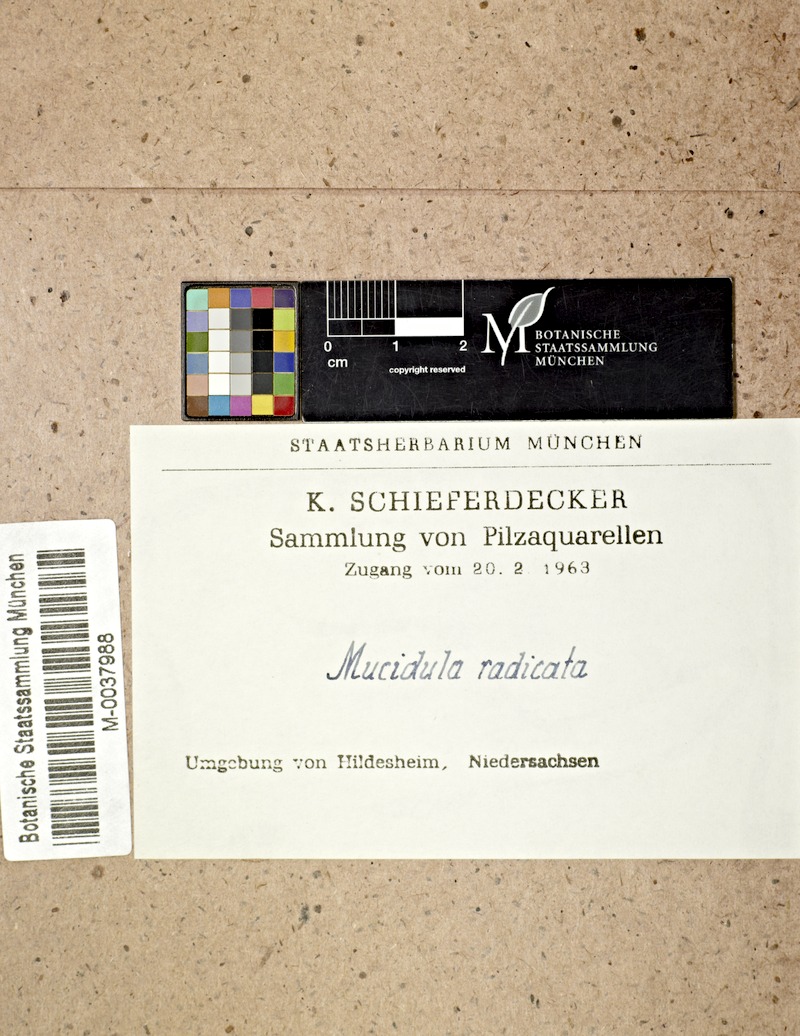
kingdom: Fungi
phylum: Basidiomycota
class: Agaricomycetes
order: Agaricales
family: Physalacriaceae
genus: Hymenopellis
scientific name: Hymenopellis radicata
